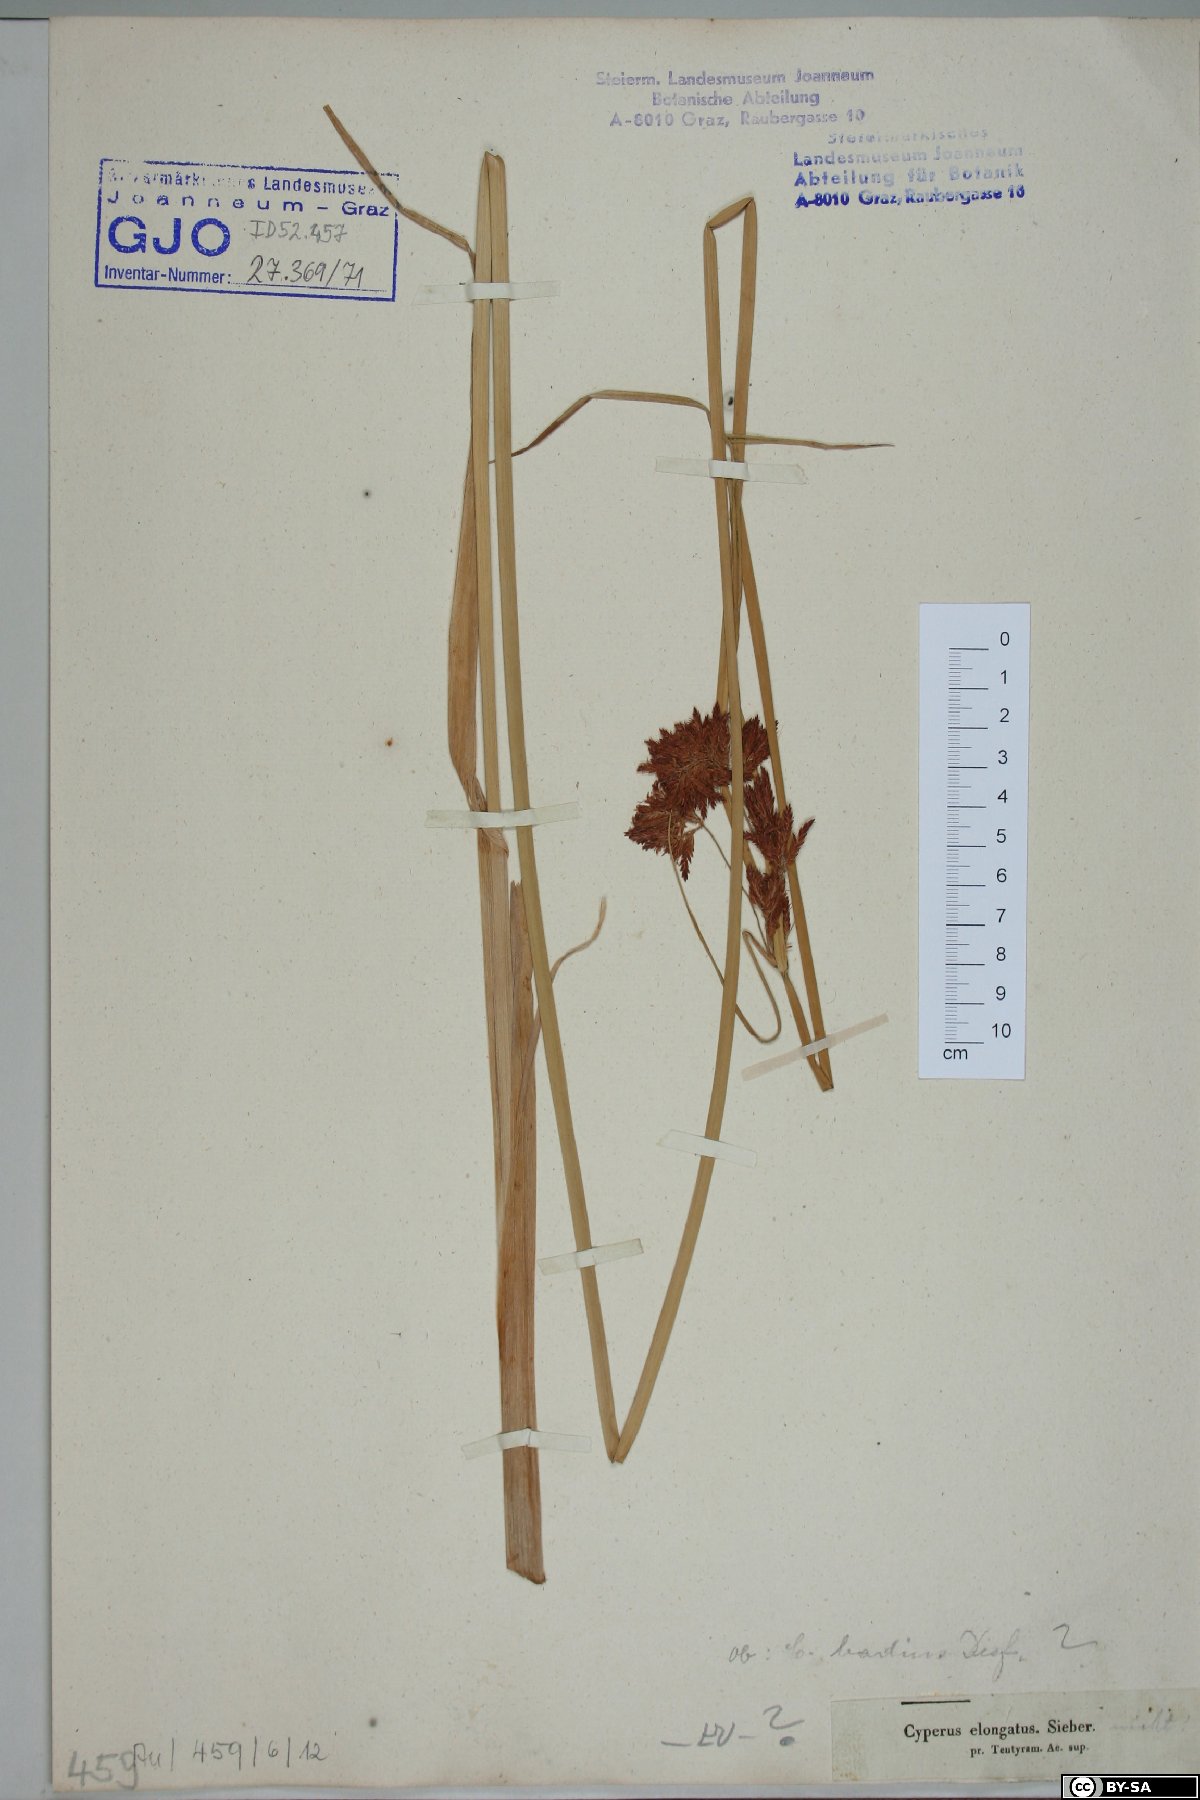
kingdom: Plantae
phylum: Tracheophyta
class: Liliopsida
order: Poales
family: Cyperaceae
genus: Cyperus
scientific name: Cyperus rotundus
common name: Nutgrass
